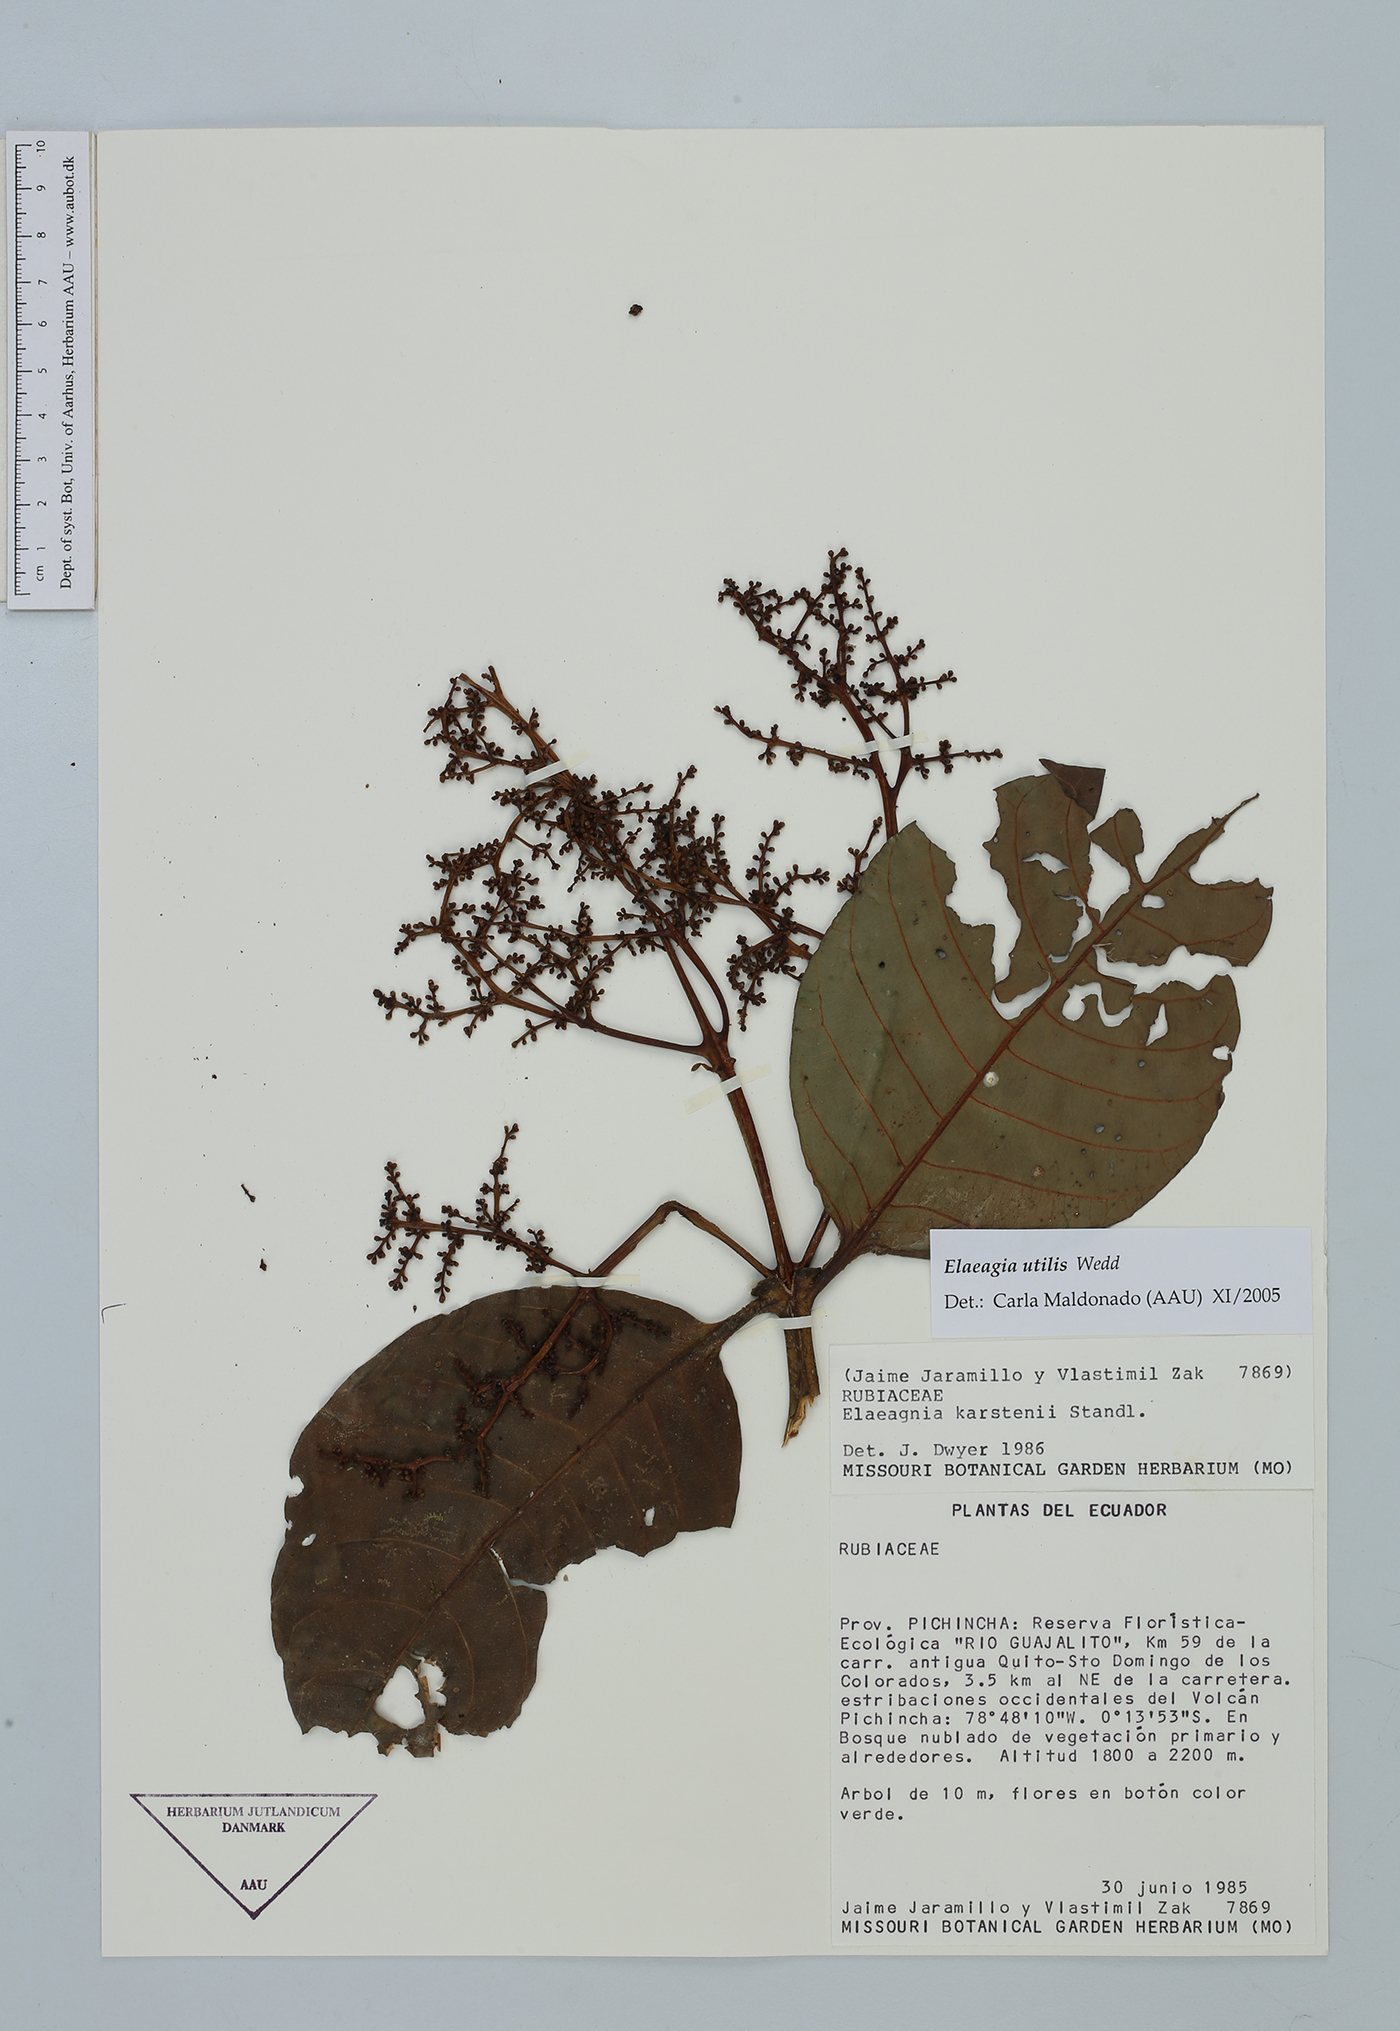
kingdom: Plantae
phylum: Tracheophyta
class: Magnoliopsida
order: Gentianales
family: Rubiaceae
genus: Elaeagia
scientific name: Elaeagia utilis
